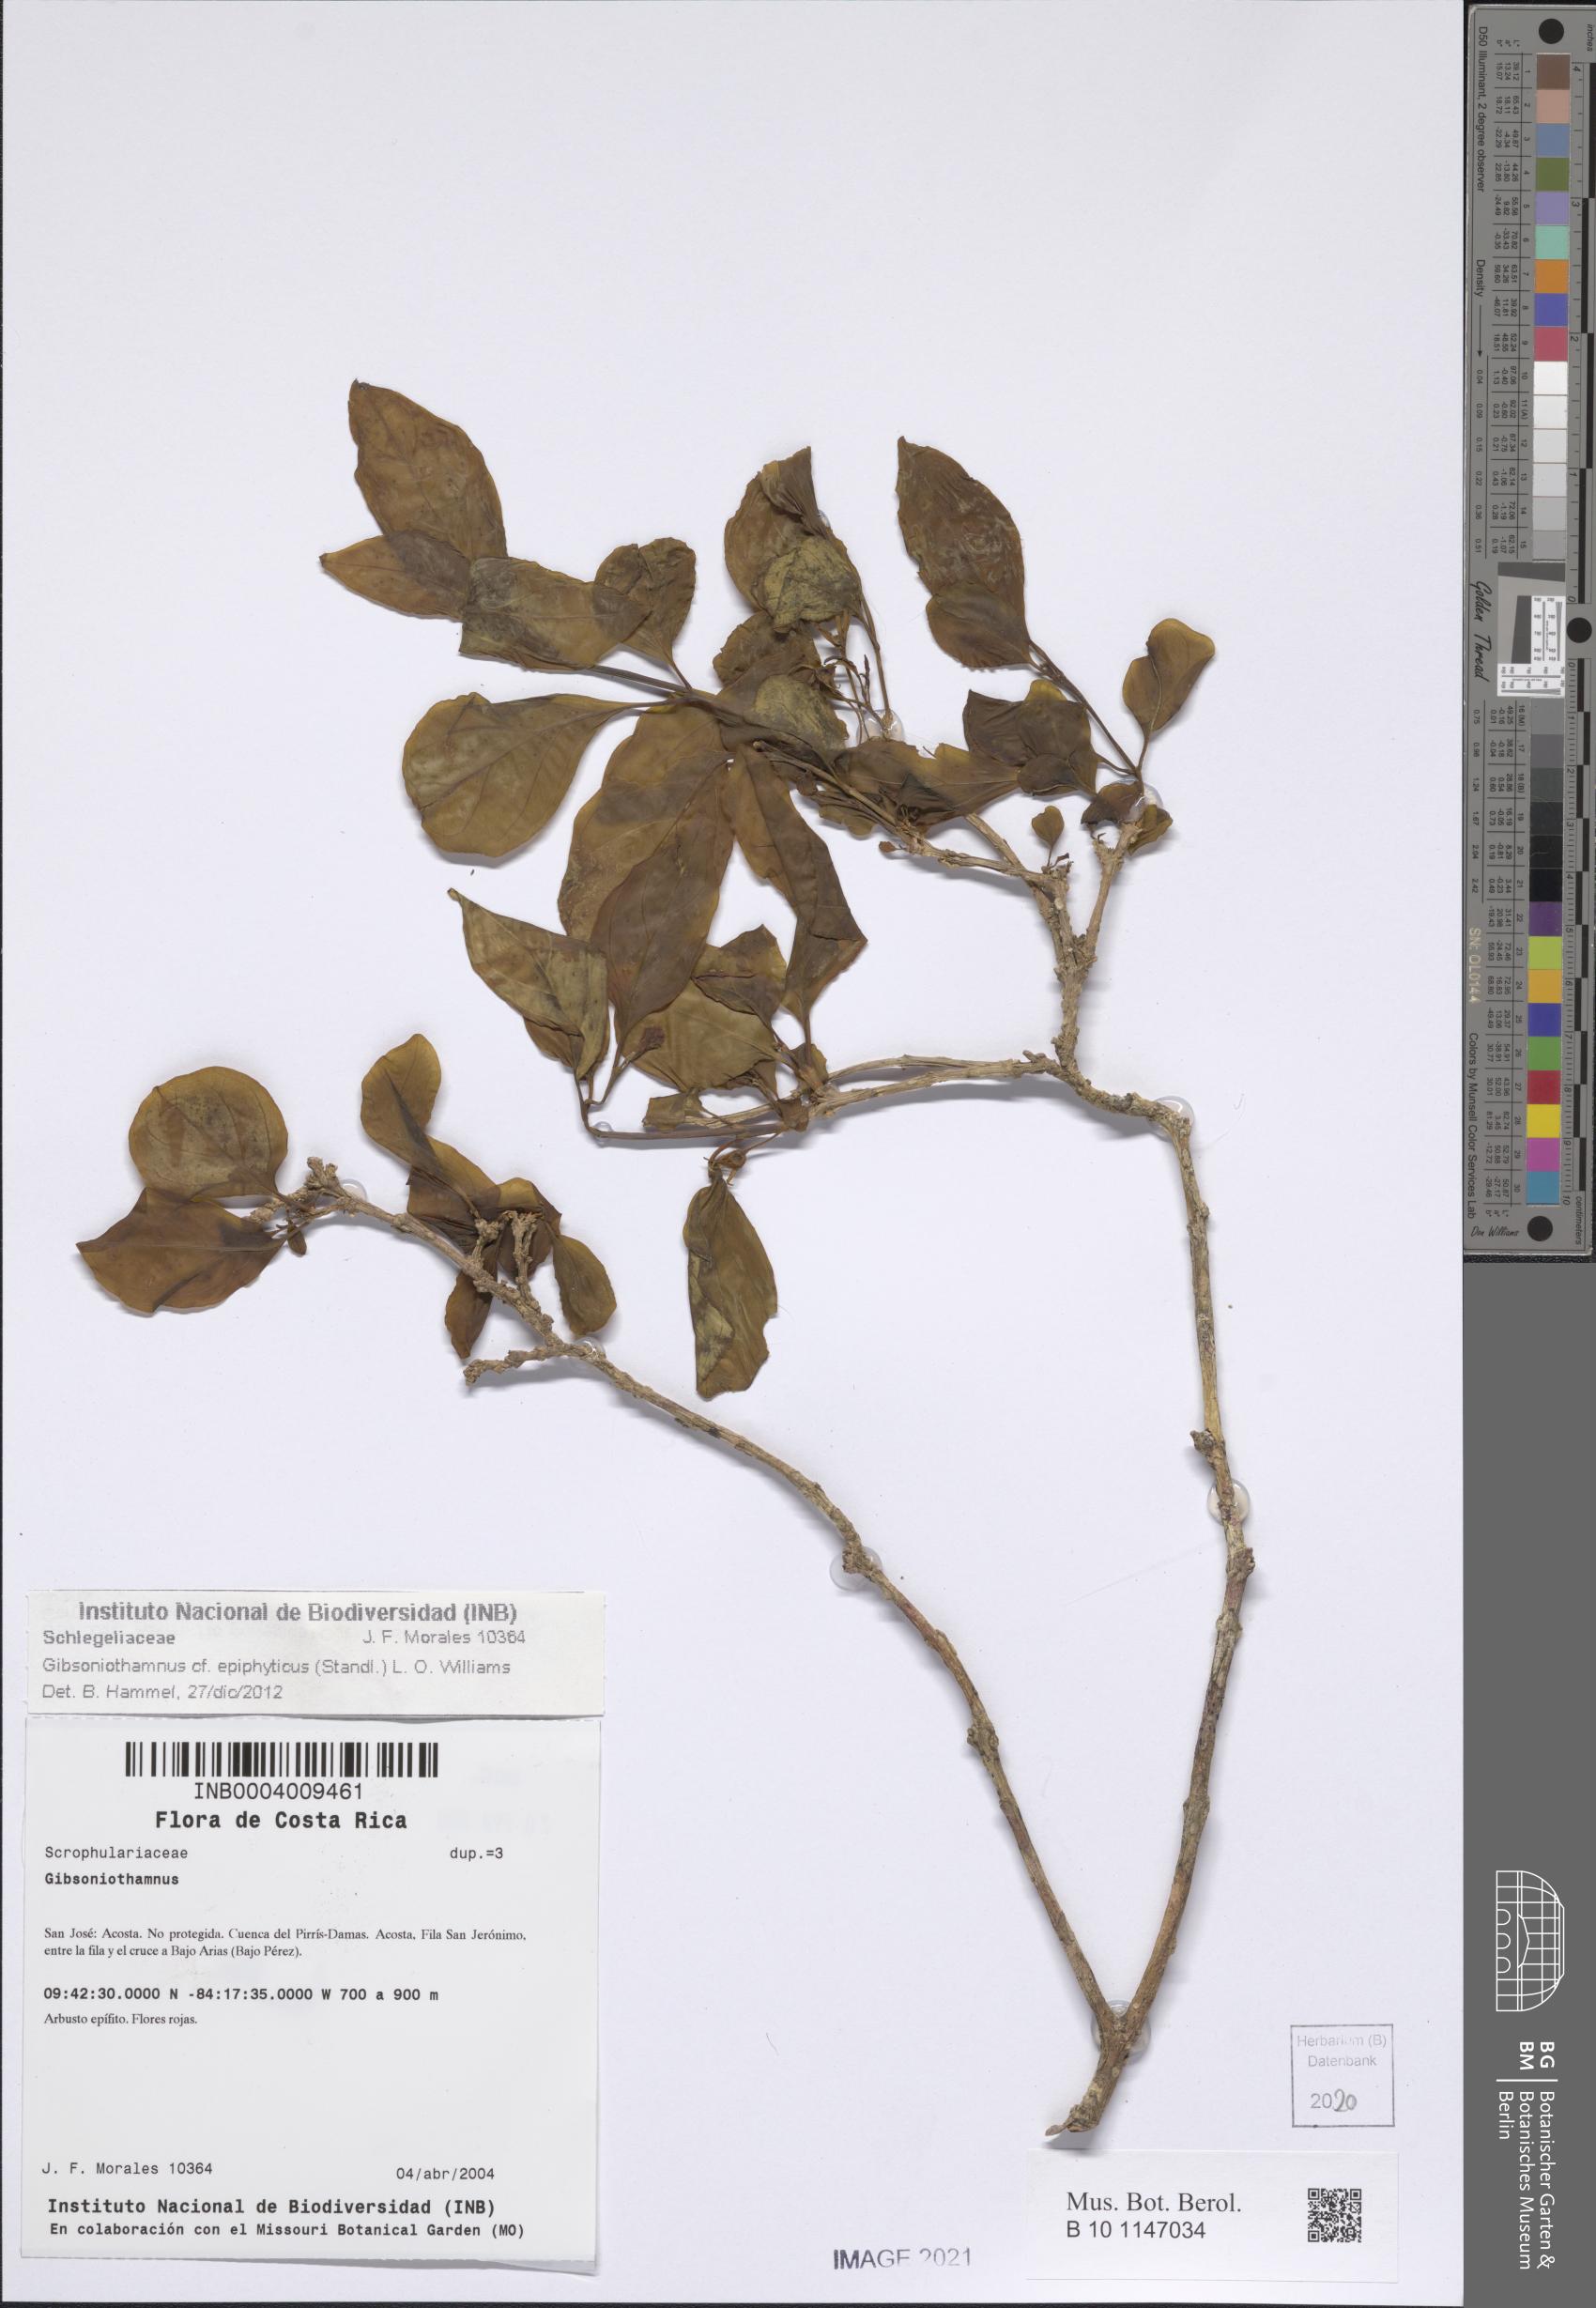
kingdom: Plantae
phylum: Tracheophyta
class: Magnoliopsida
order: Lamiales
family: Schlegeliaceae
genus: Gibsoniothamnus
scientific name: Gibsoniothamnus epiphyticus
